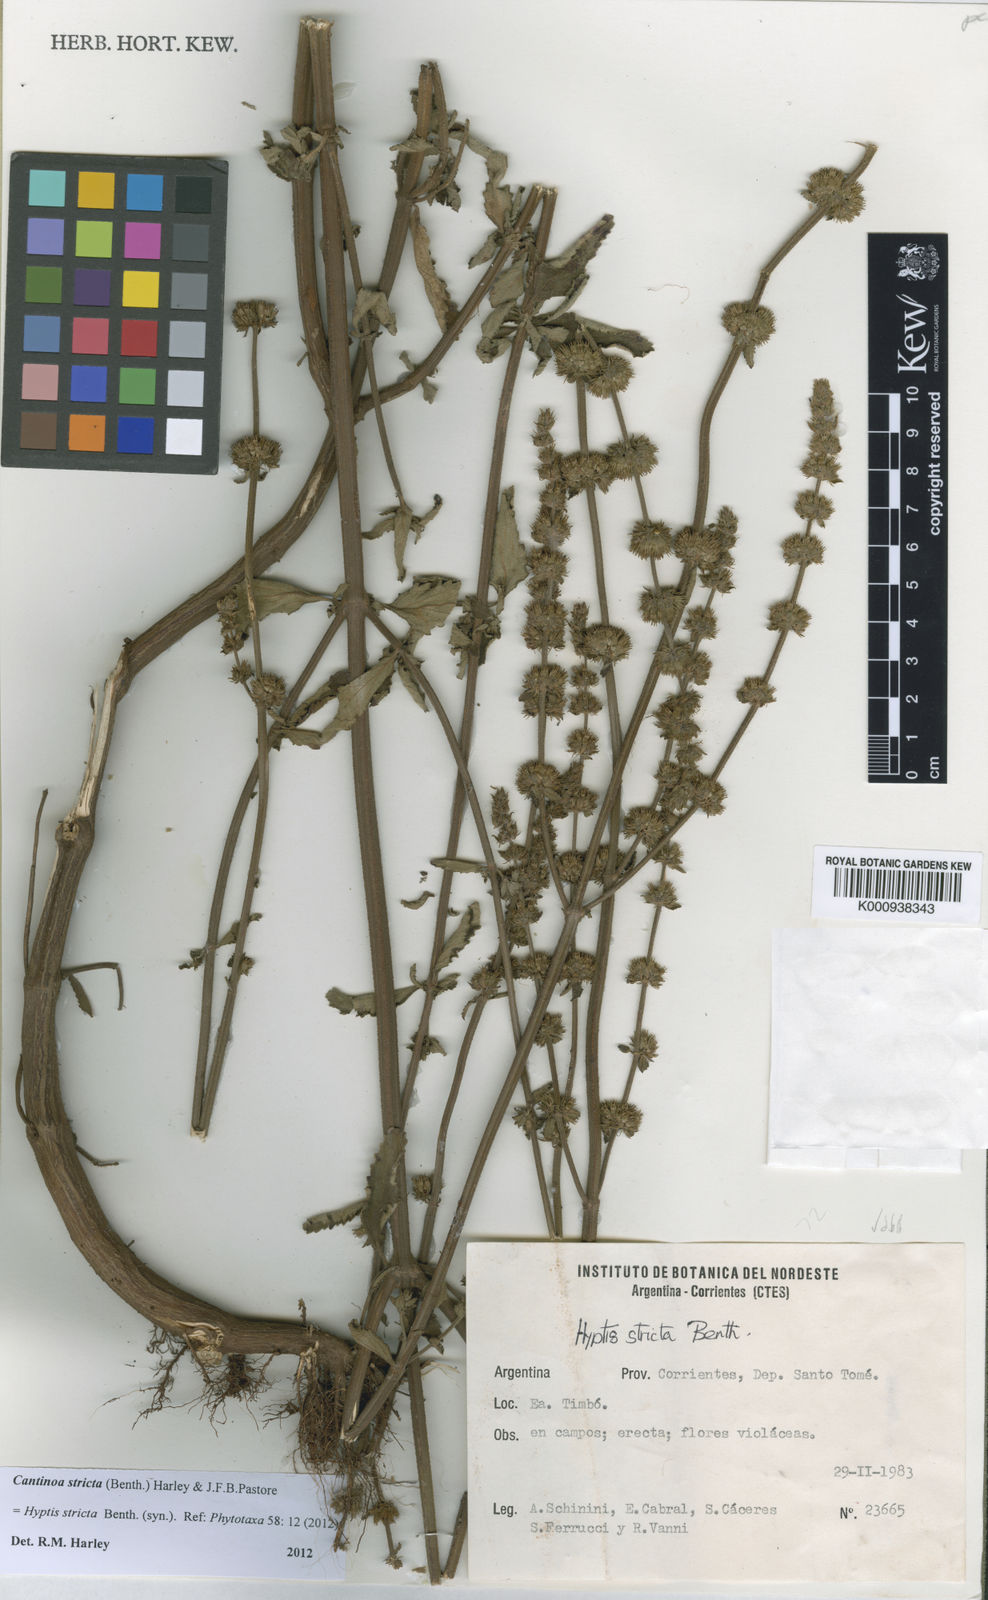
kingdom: Plantae
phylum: Tracheophyta
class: Magnoliopsida
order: Lamiales
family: Lamiaceae
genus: Cantinoa
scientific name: Cantinoa stricta
